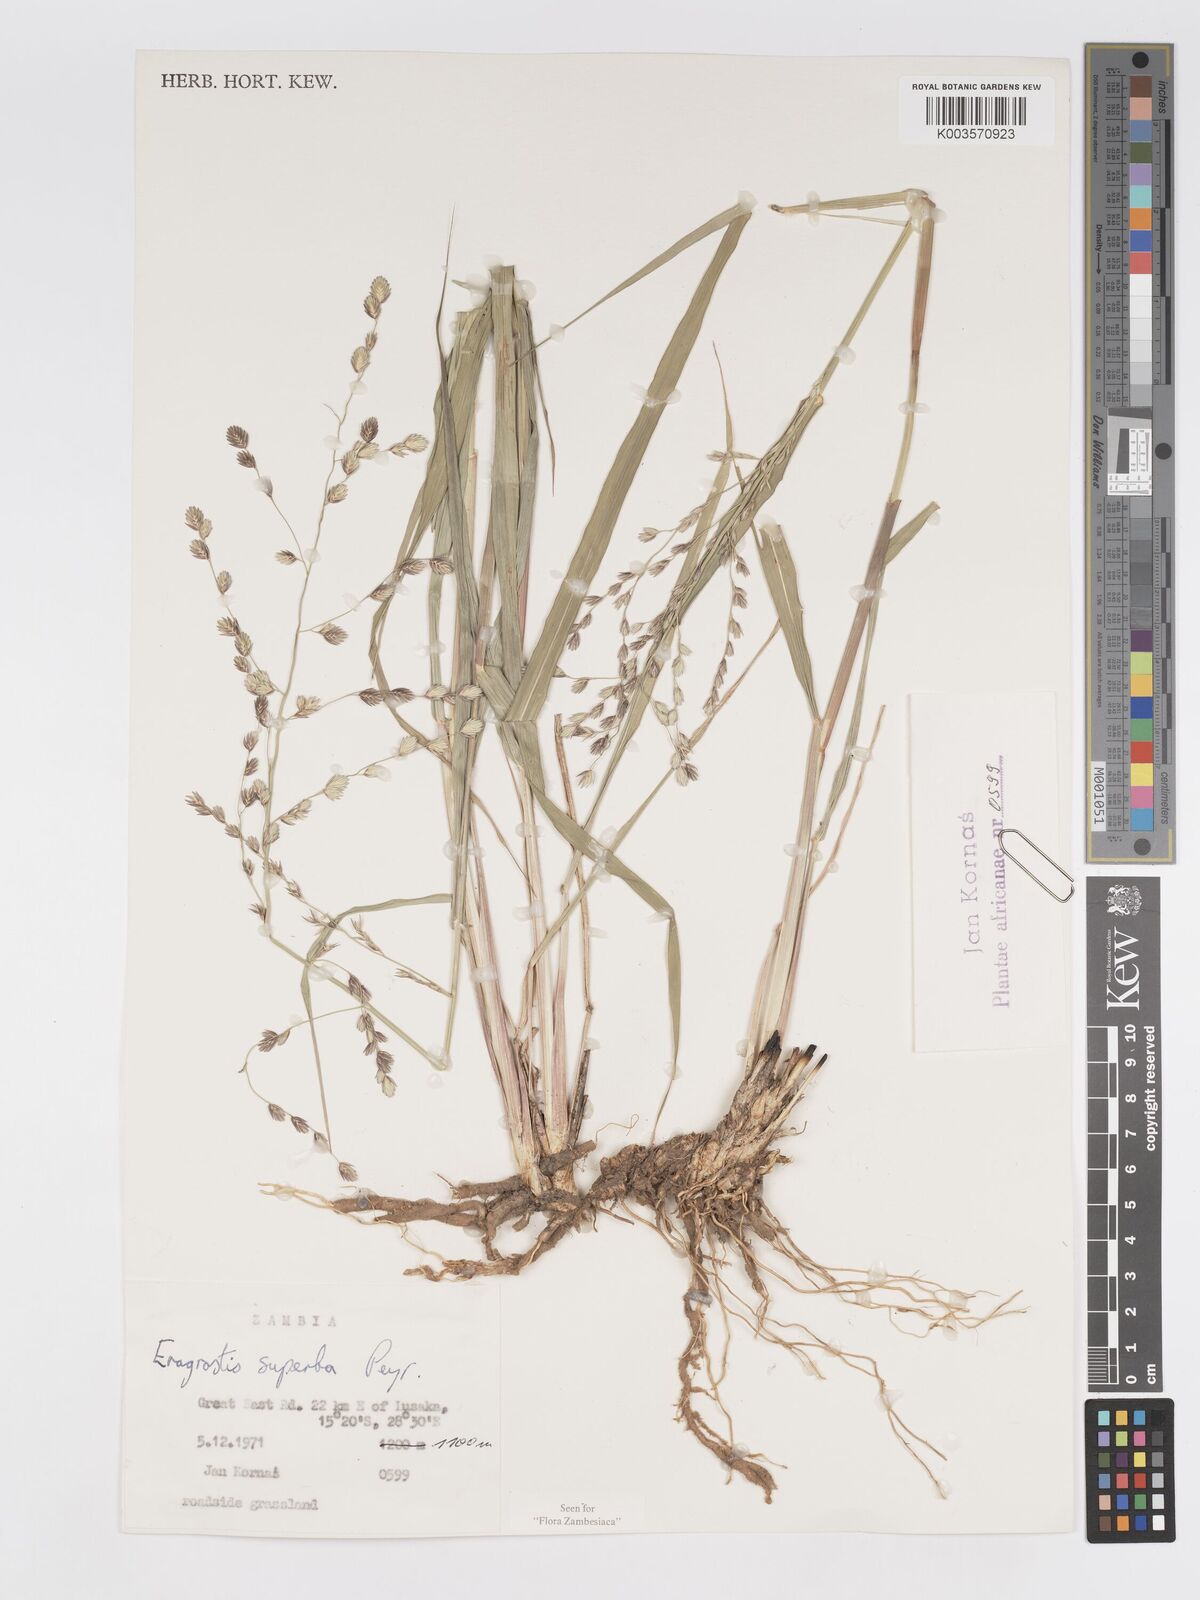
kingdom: Plantae
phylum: Tracheophyta
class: Liliopsida
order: Poales
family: Poaceae
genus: Eragrostis
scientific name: Eragrostis superba
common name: Wilman lovegrass
